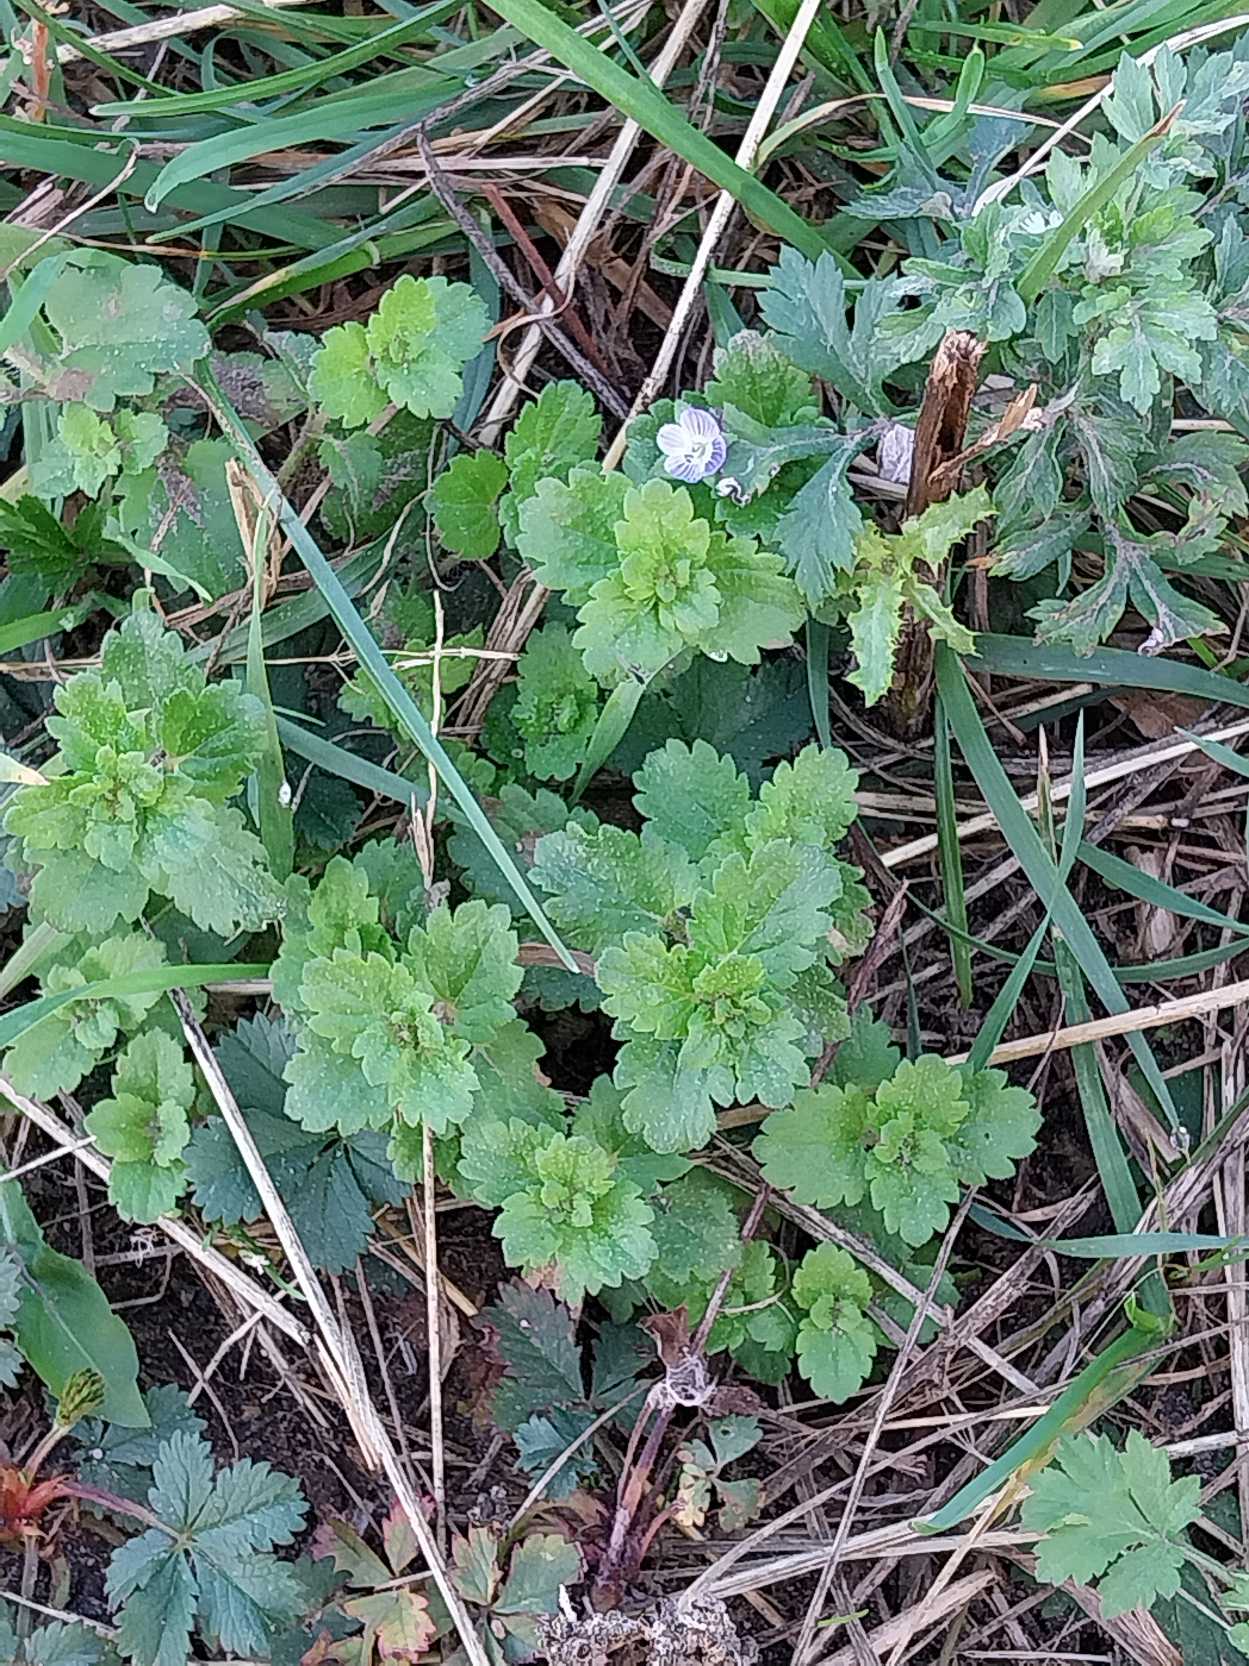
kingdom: Plantae
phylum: Tracheophyta
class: Magnoliopsida
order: Lamiales
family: Plantaginaceae
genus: Veronica
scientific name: Veronica persica
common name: Storkronet ærenpris
